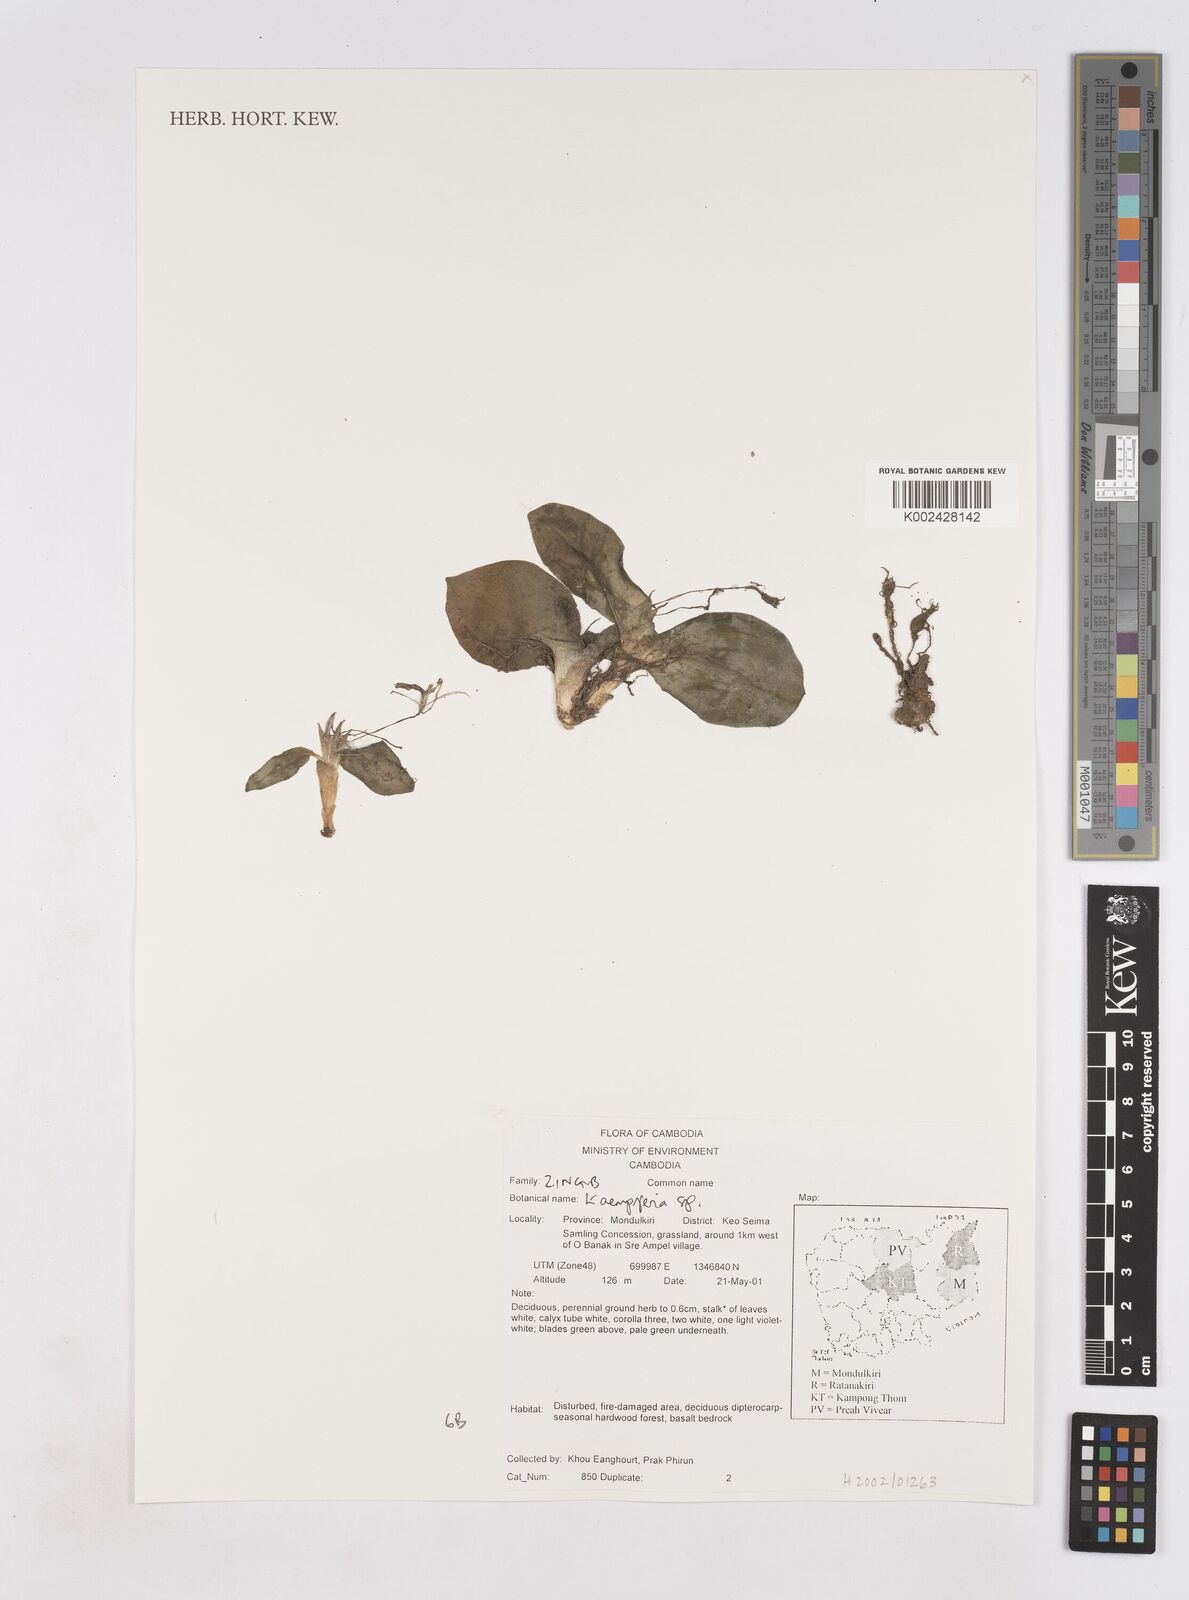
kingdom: Plantae
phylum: Tracheophyta
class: Liliopsida
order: Zingiberales
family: Zingiberaceae
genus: Kaempferia
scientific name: Kaempferia
